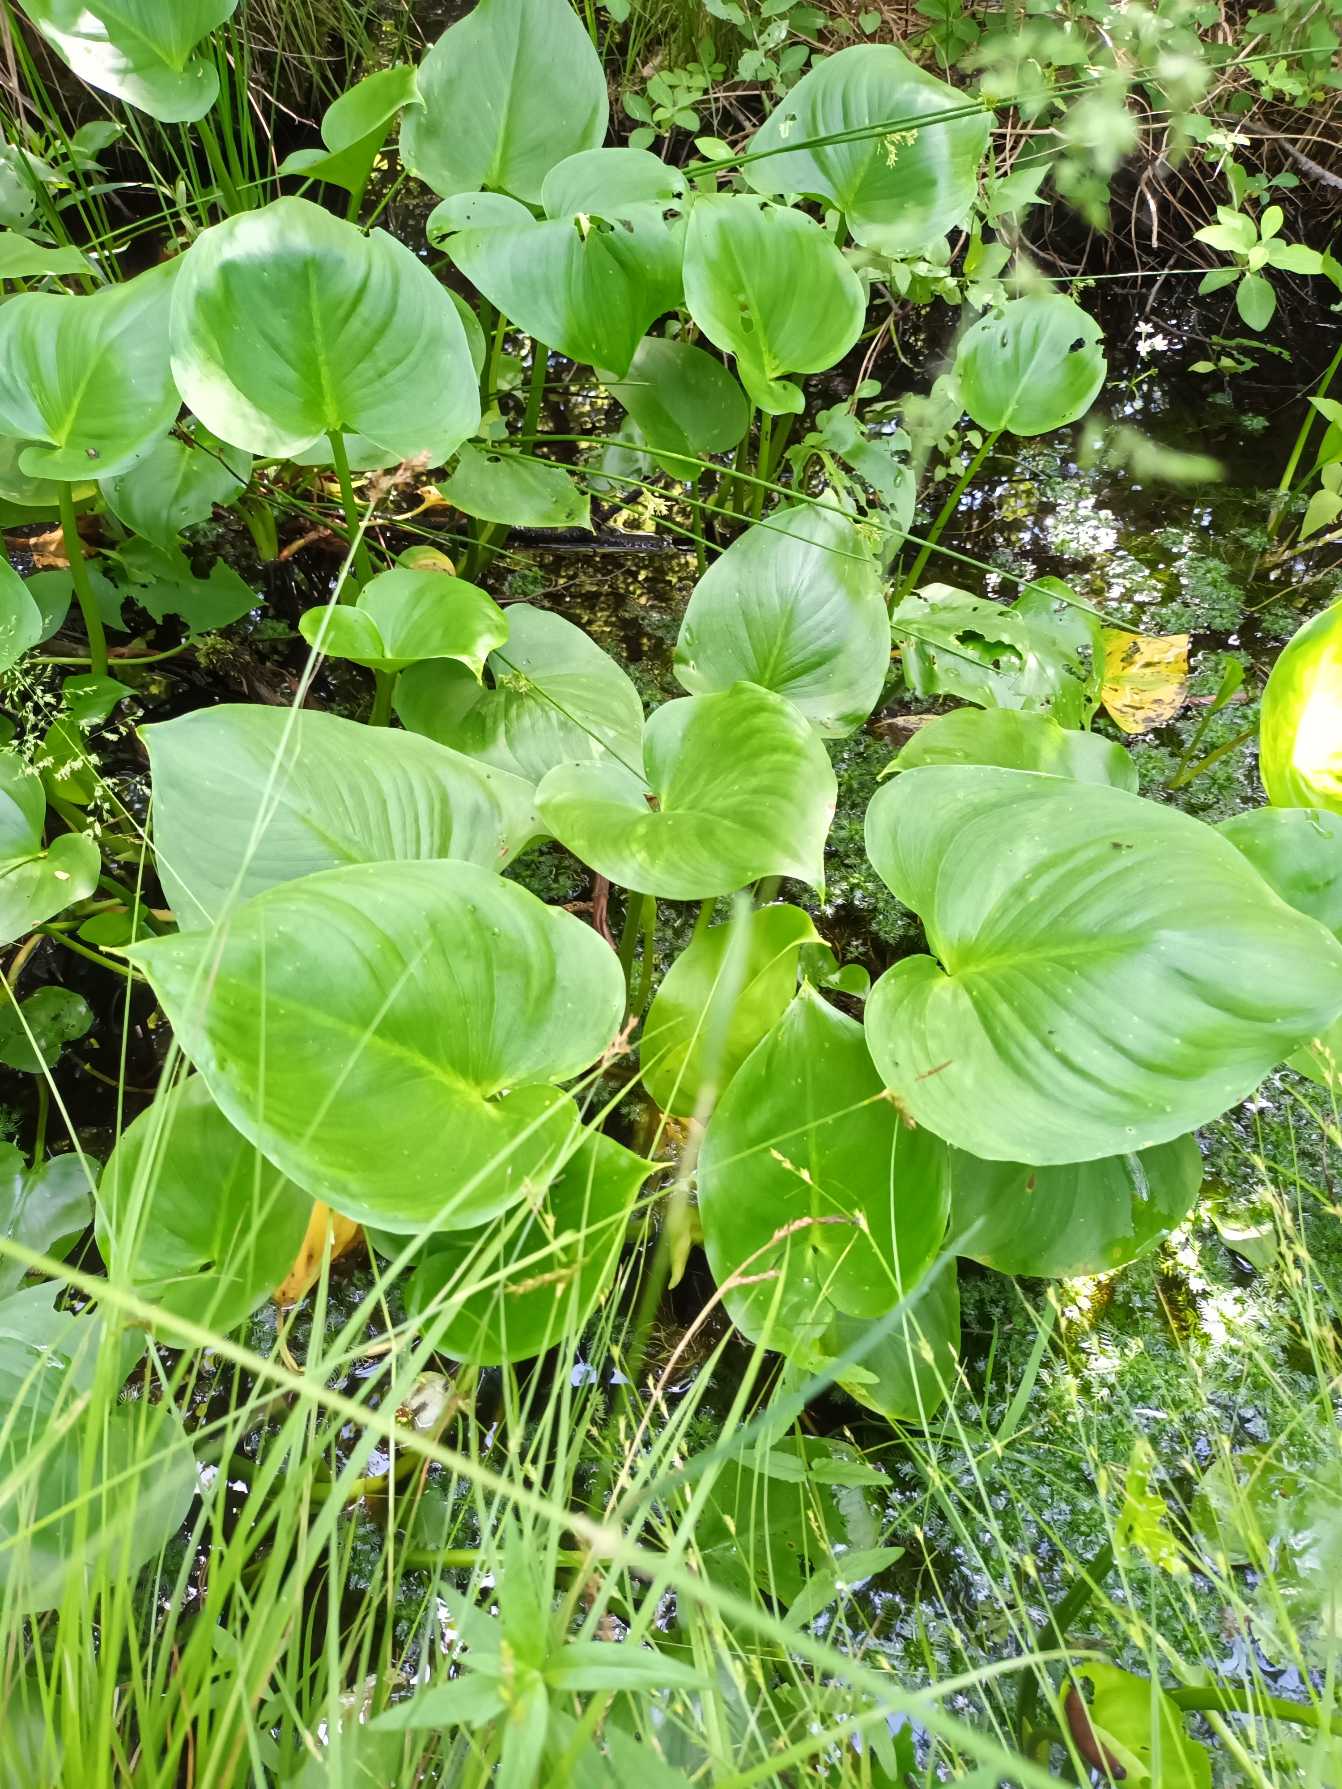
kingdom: Plantae
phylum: Tracheophyta
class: Liliopsida
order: Alismatales
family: Araceae
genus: Calla
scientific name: Calla palustris
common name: Kærmysse
